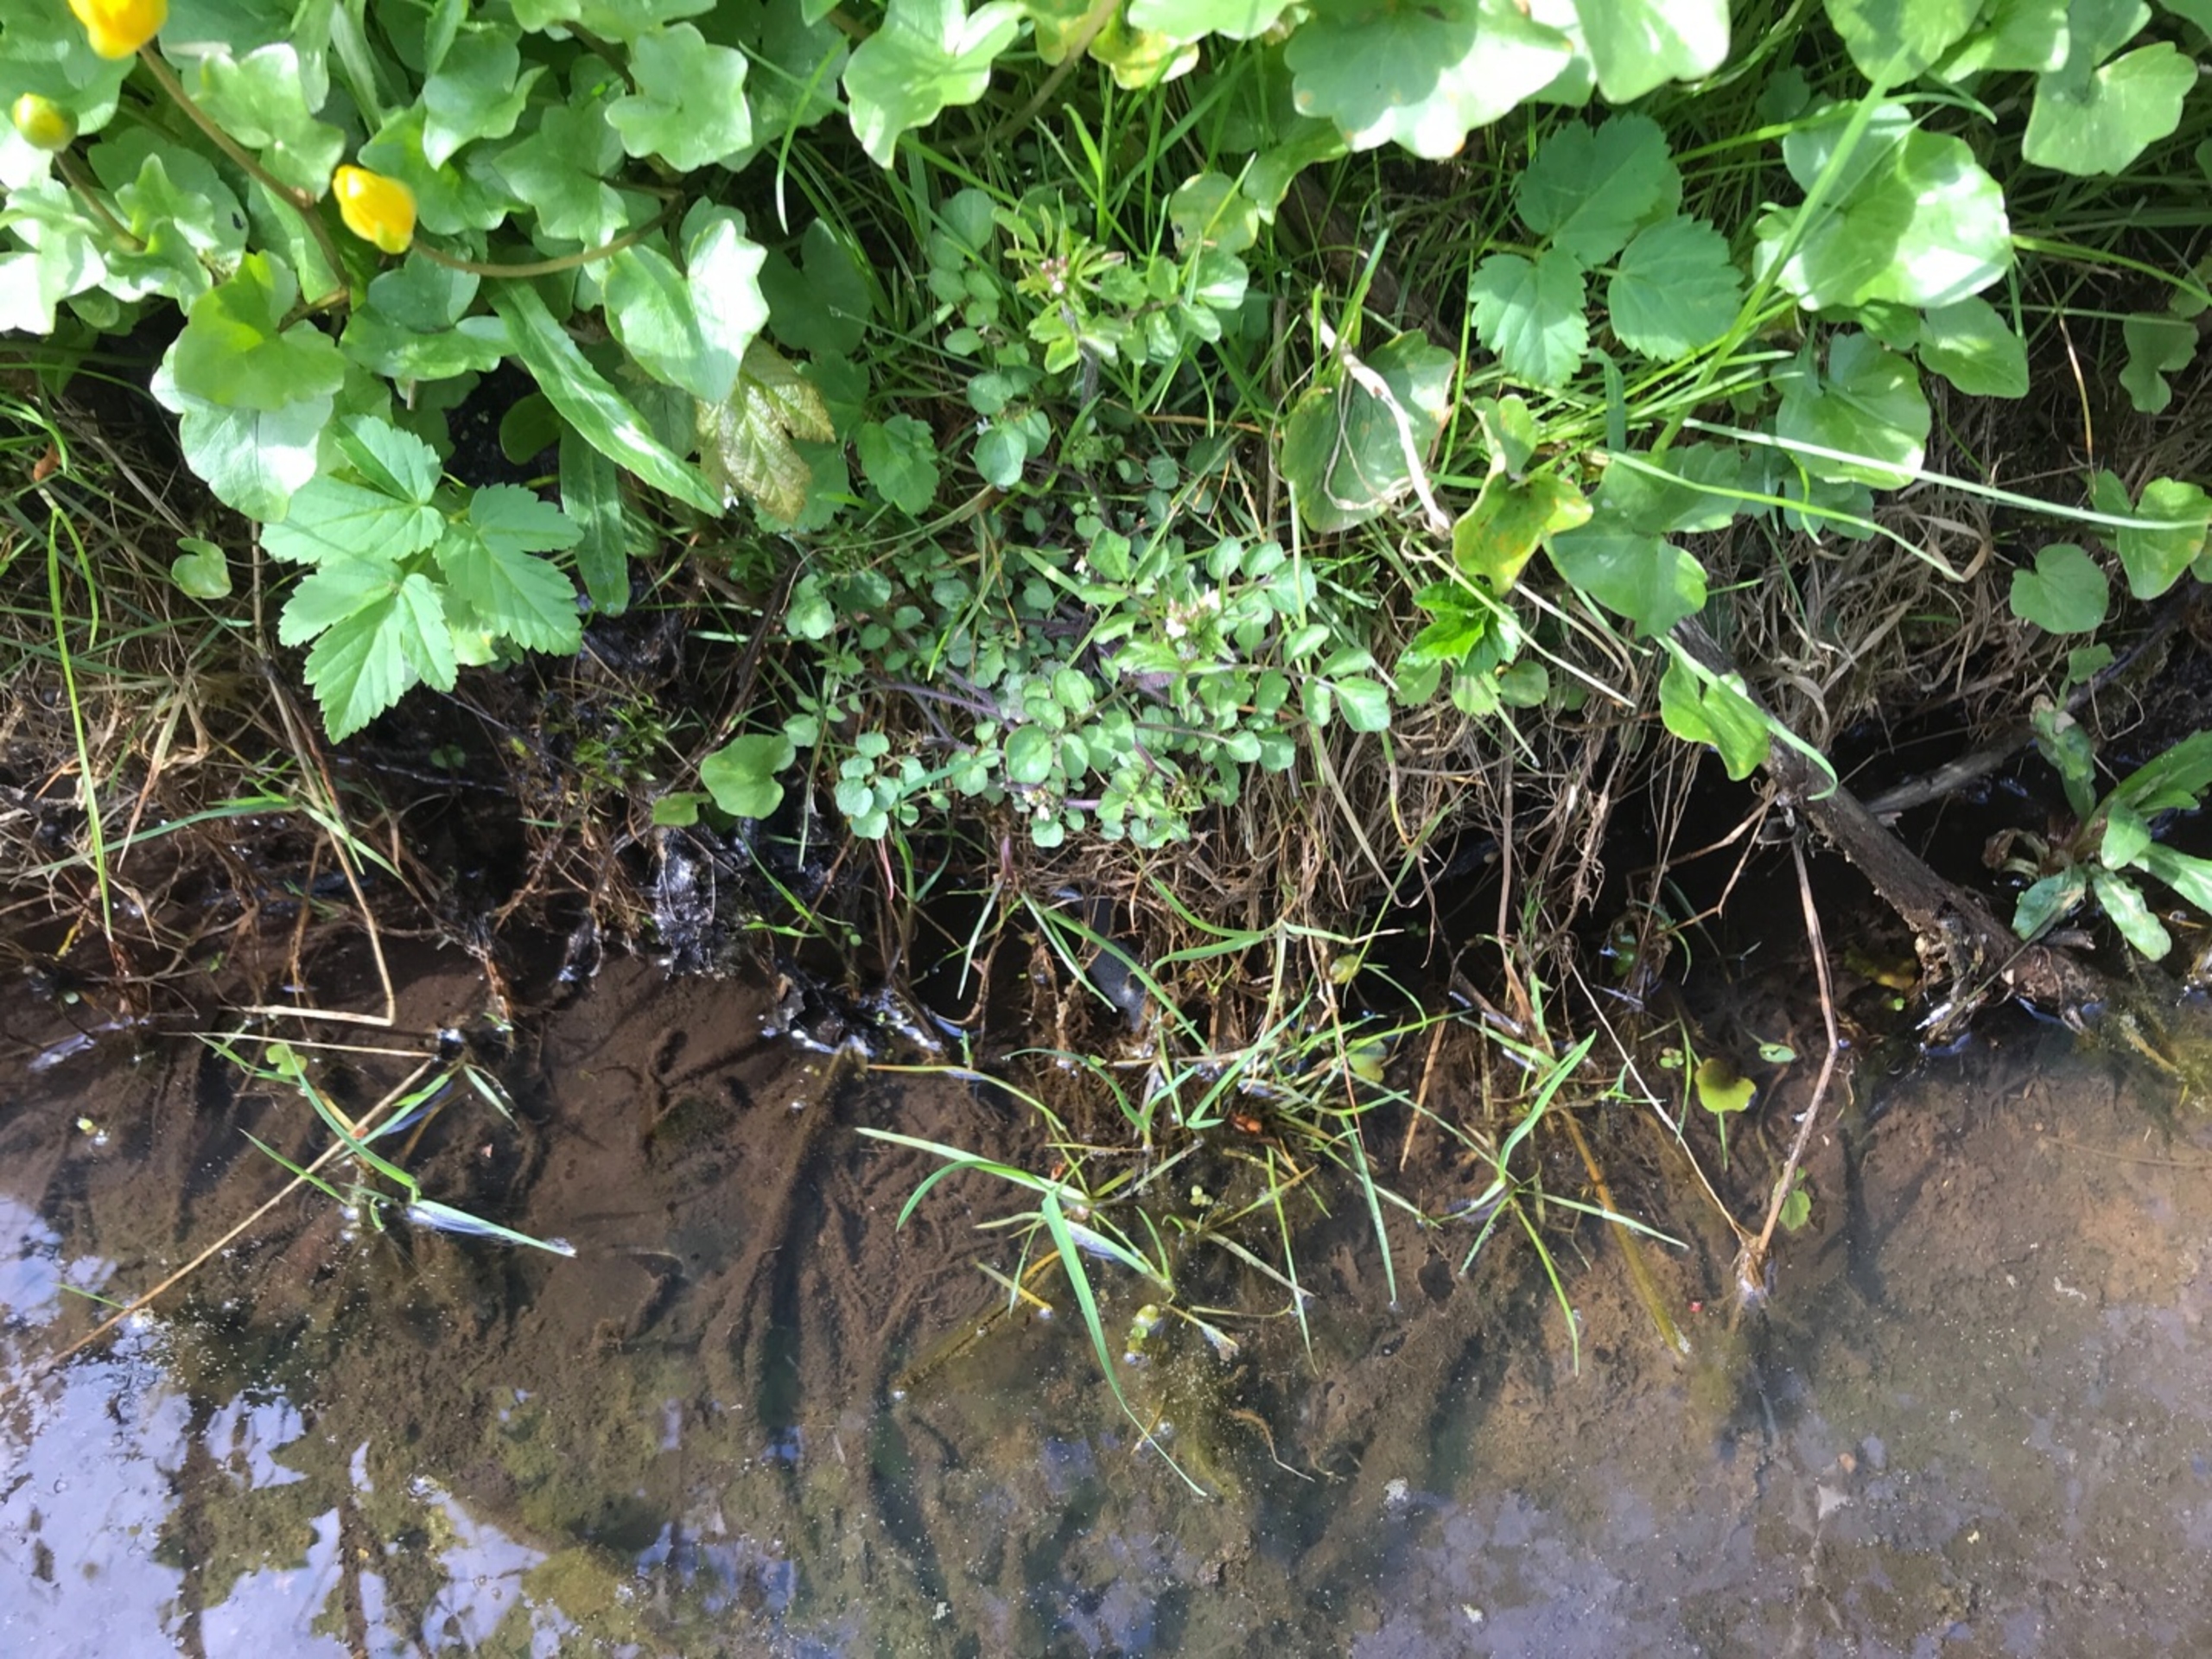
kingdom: Plantae
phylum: Tracheophyta
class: Magnoliopsida
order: Brassicales
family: Brassicaceae
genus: Cardamine
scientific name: Cardamine pratensis
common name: Sumpkarse
